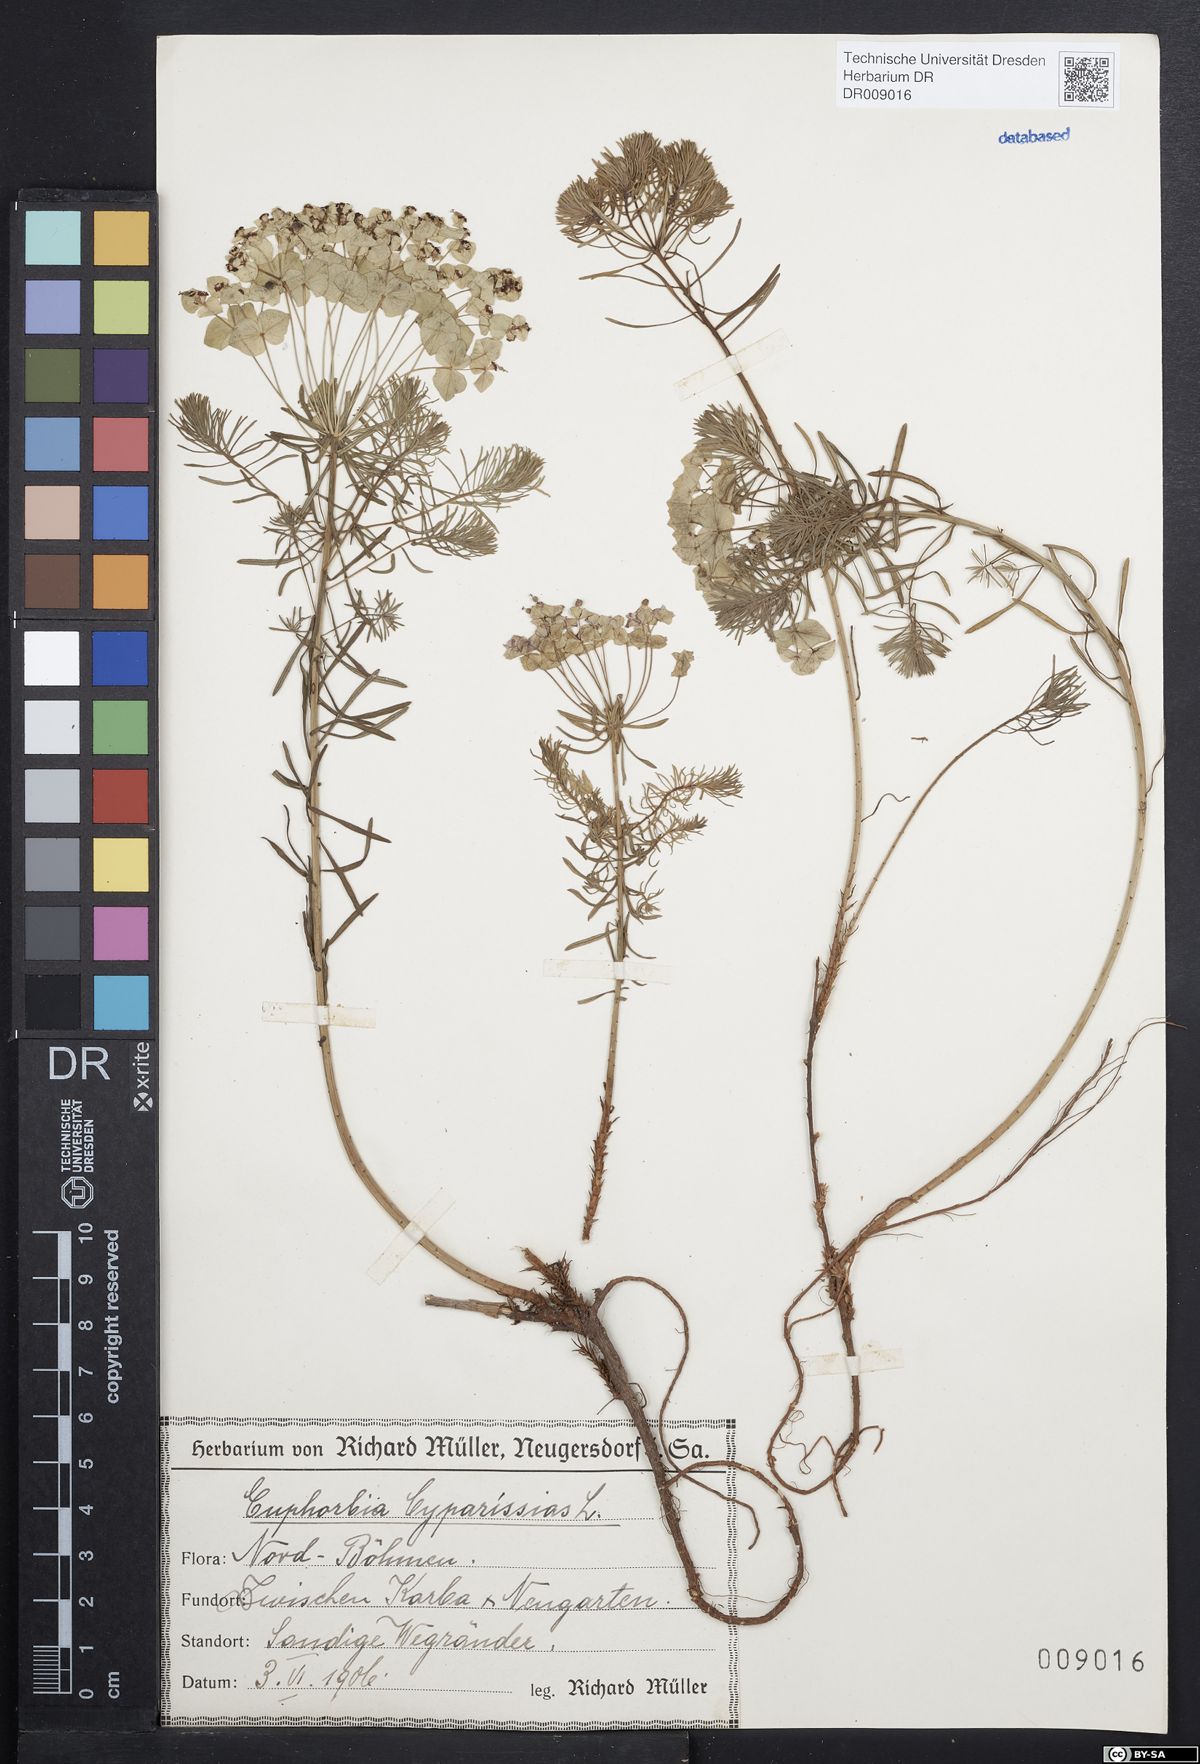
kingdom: Plantae
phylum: Tracheophyta
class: Magnoliopsida
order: Malpighiales
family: Euphorbiaceae
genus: Euphorbia
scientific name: Euphorbia cyparissias
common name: Cypress spurge
